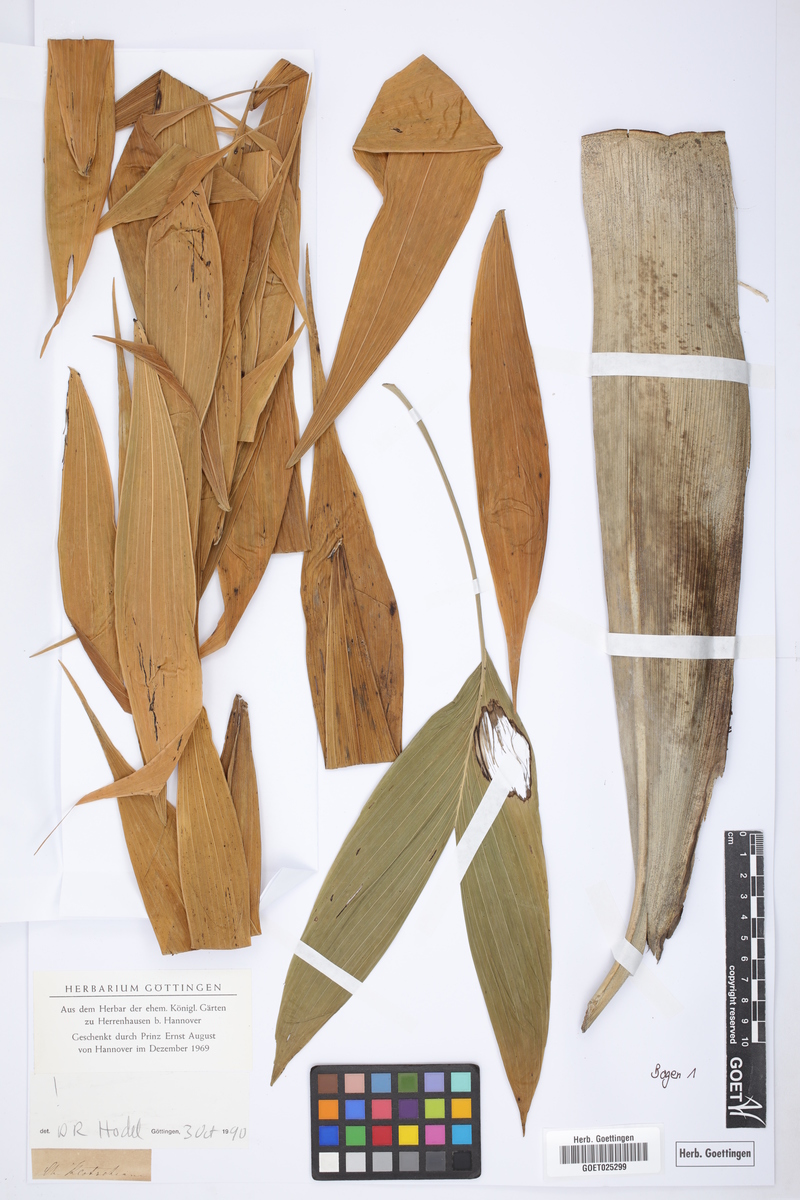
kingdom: Plantae
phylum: Tracheophyta
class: Liliopsida
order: Arecales
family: Arecaceae
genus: Chamaedorea
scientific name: Chamaedorea klotzschiana
